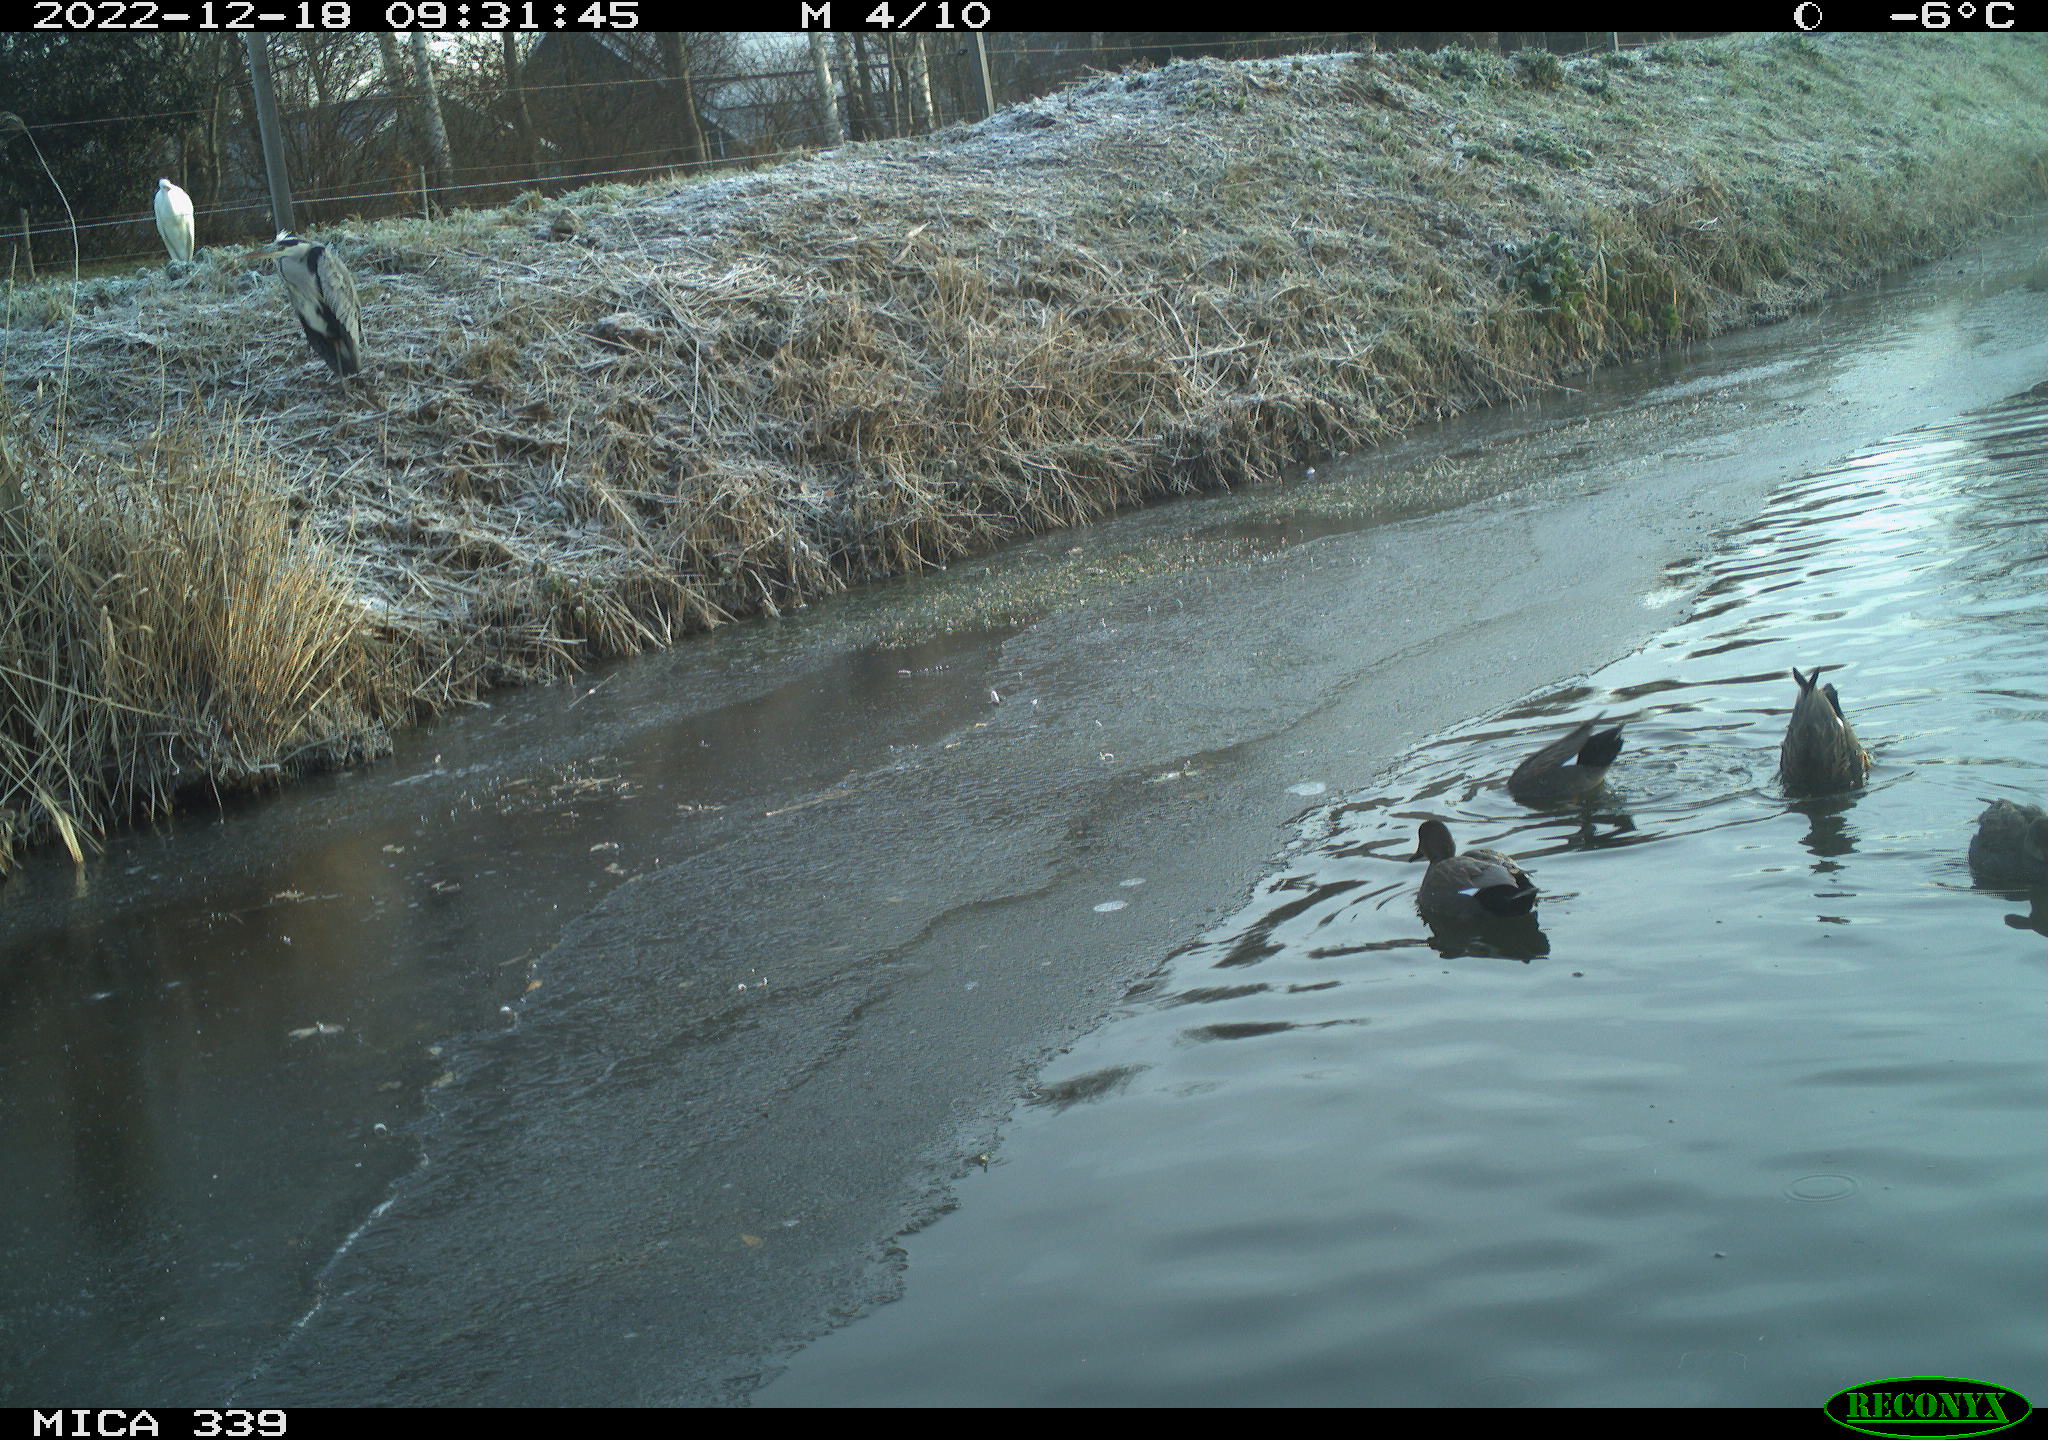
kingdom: Animalia
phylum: Chordata
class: Aves
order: Anseriformes
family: Anatidae
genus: Anas
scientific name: Anas
